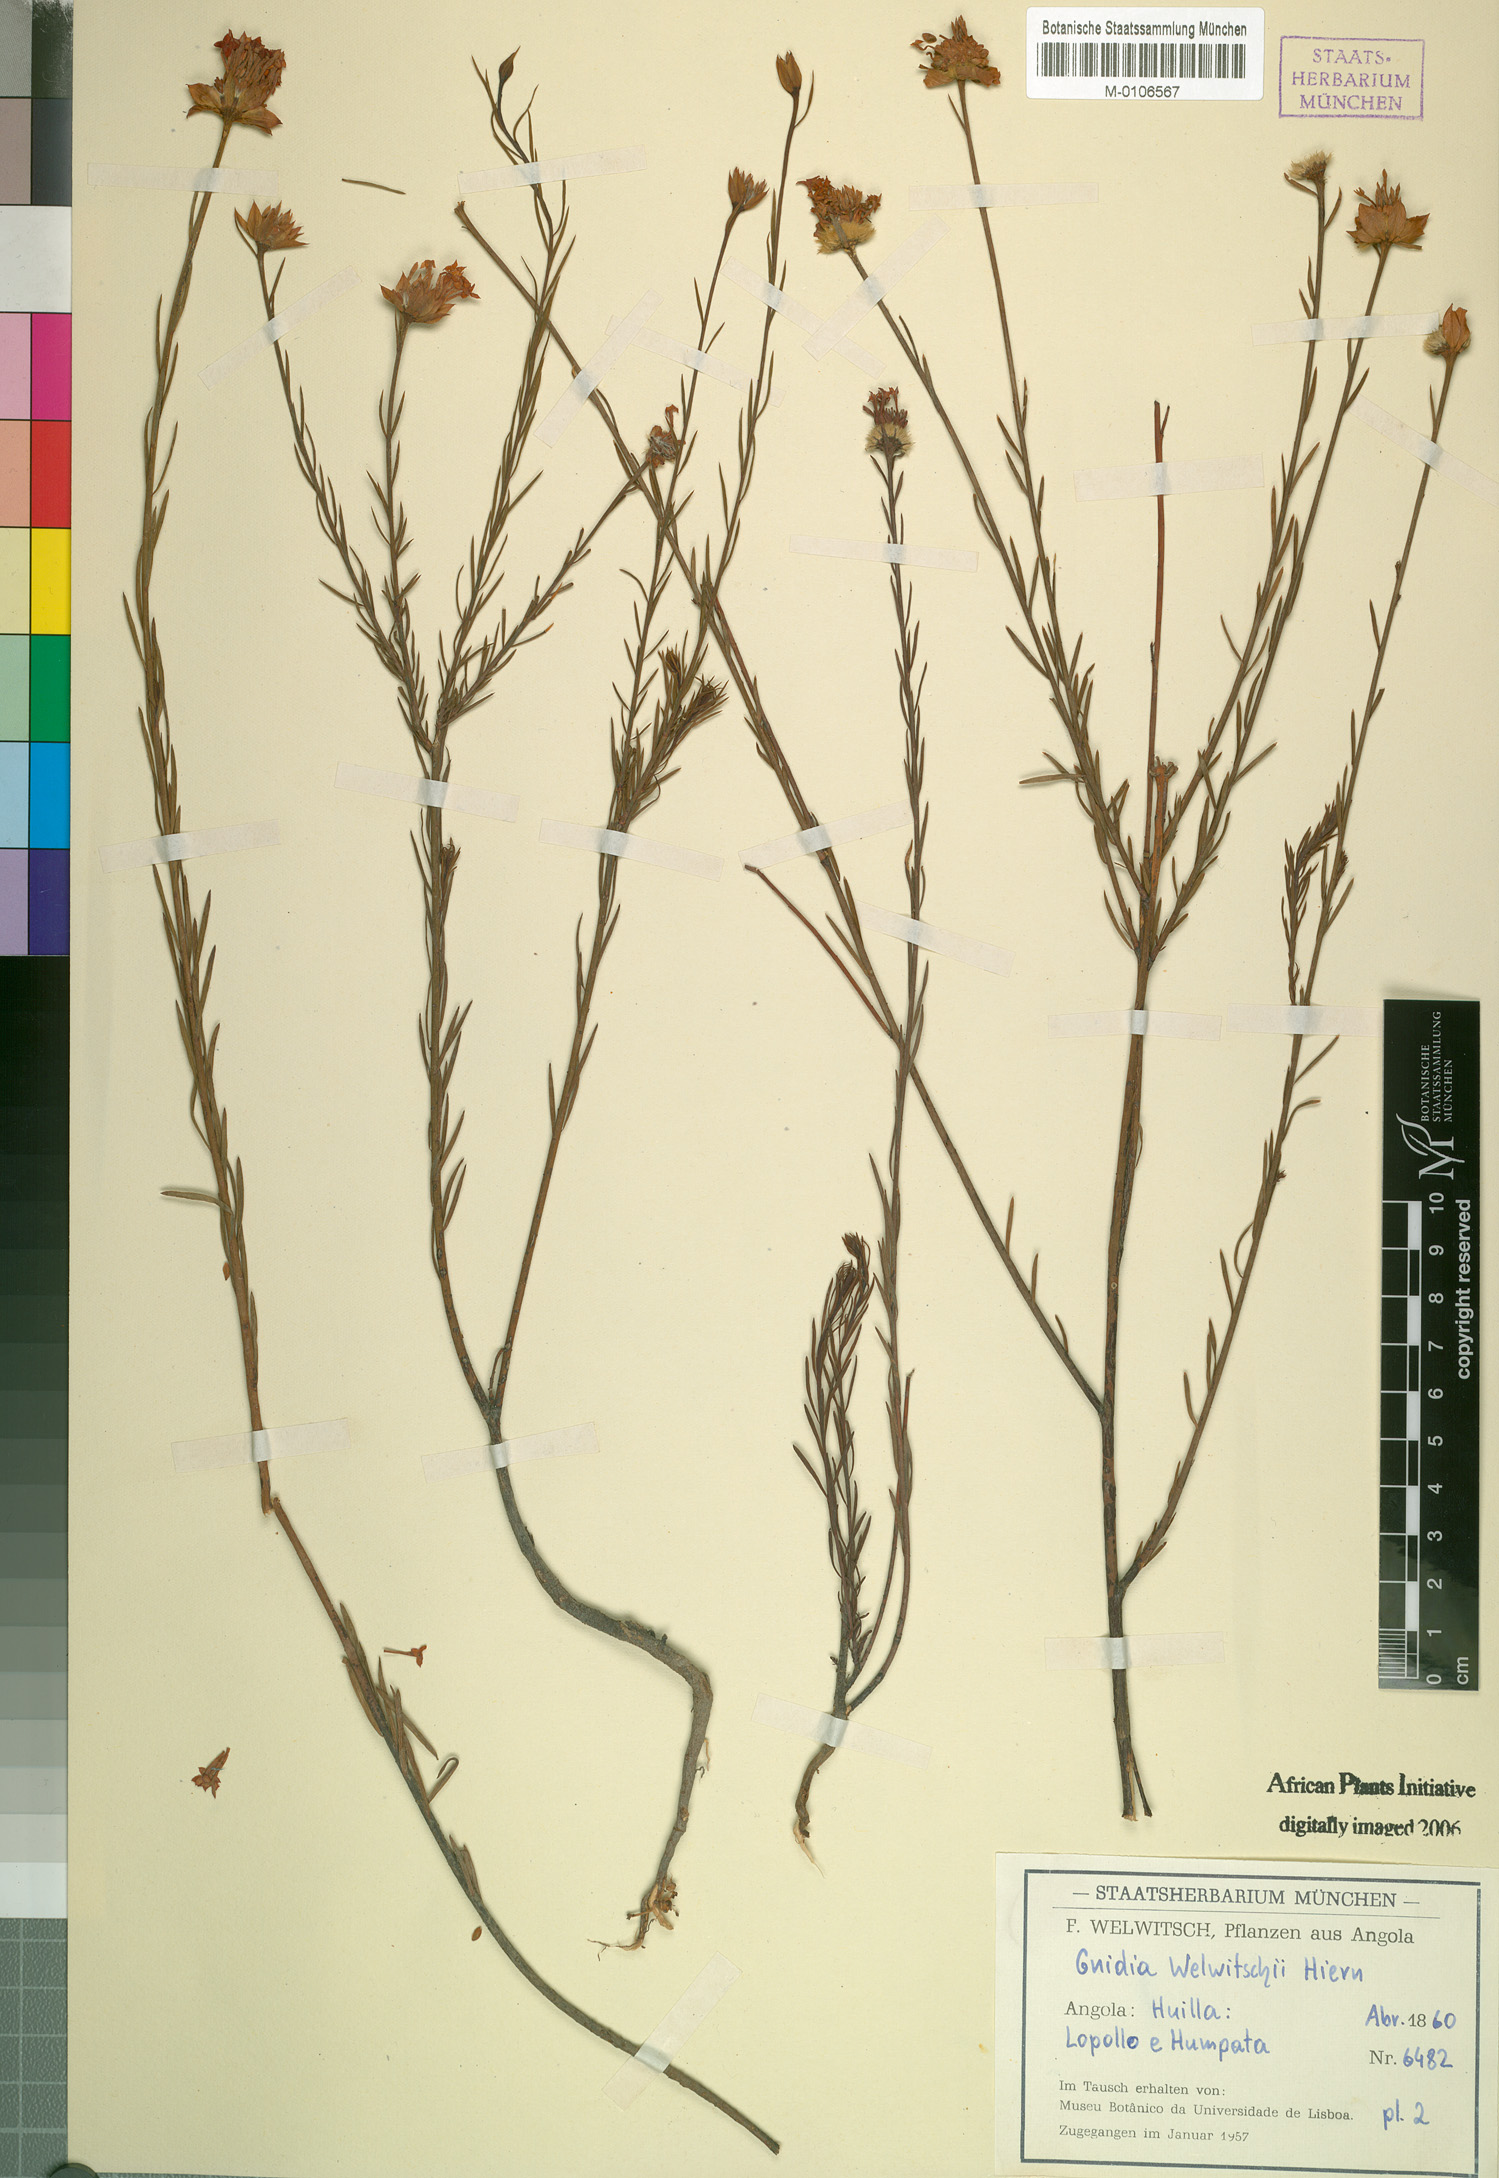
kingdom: Plantae
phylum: Tracheophyta
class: Magnoliopsida
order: Malvales
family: Thymelaeaceae
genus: Gnidia
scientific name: Gnidia welwitschii
